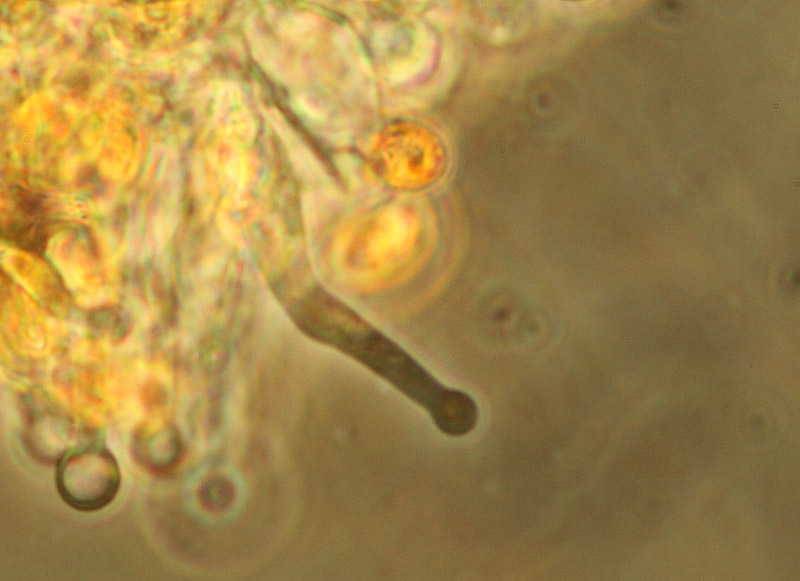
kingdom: Fungi
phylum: Basidiomycota
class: Agaricomycetes
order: Agaricales
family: Hymenogastraceae
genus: Galerina
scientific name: Galerina hybrida
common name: hængesæk-hjelmhat
